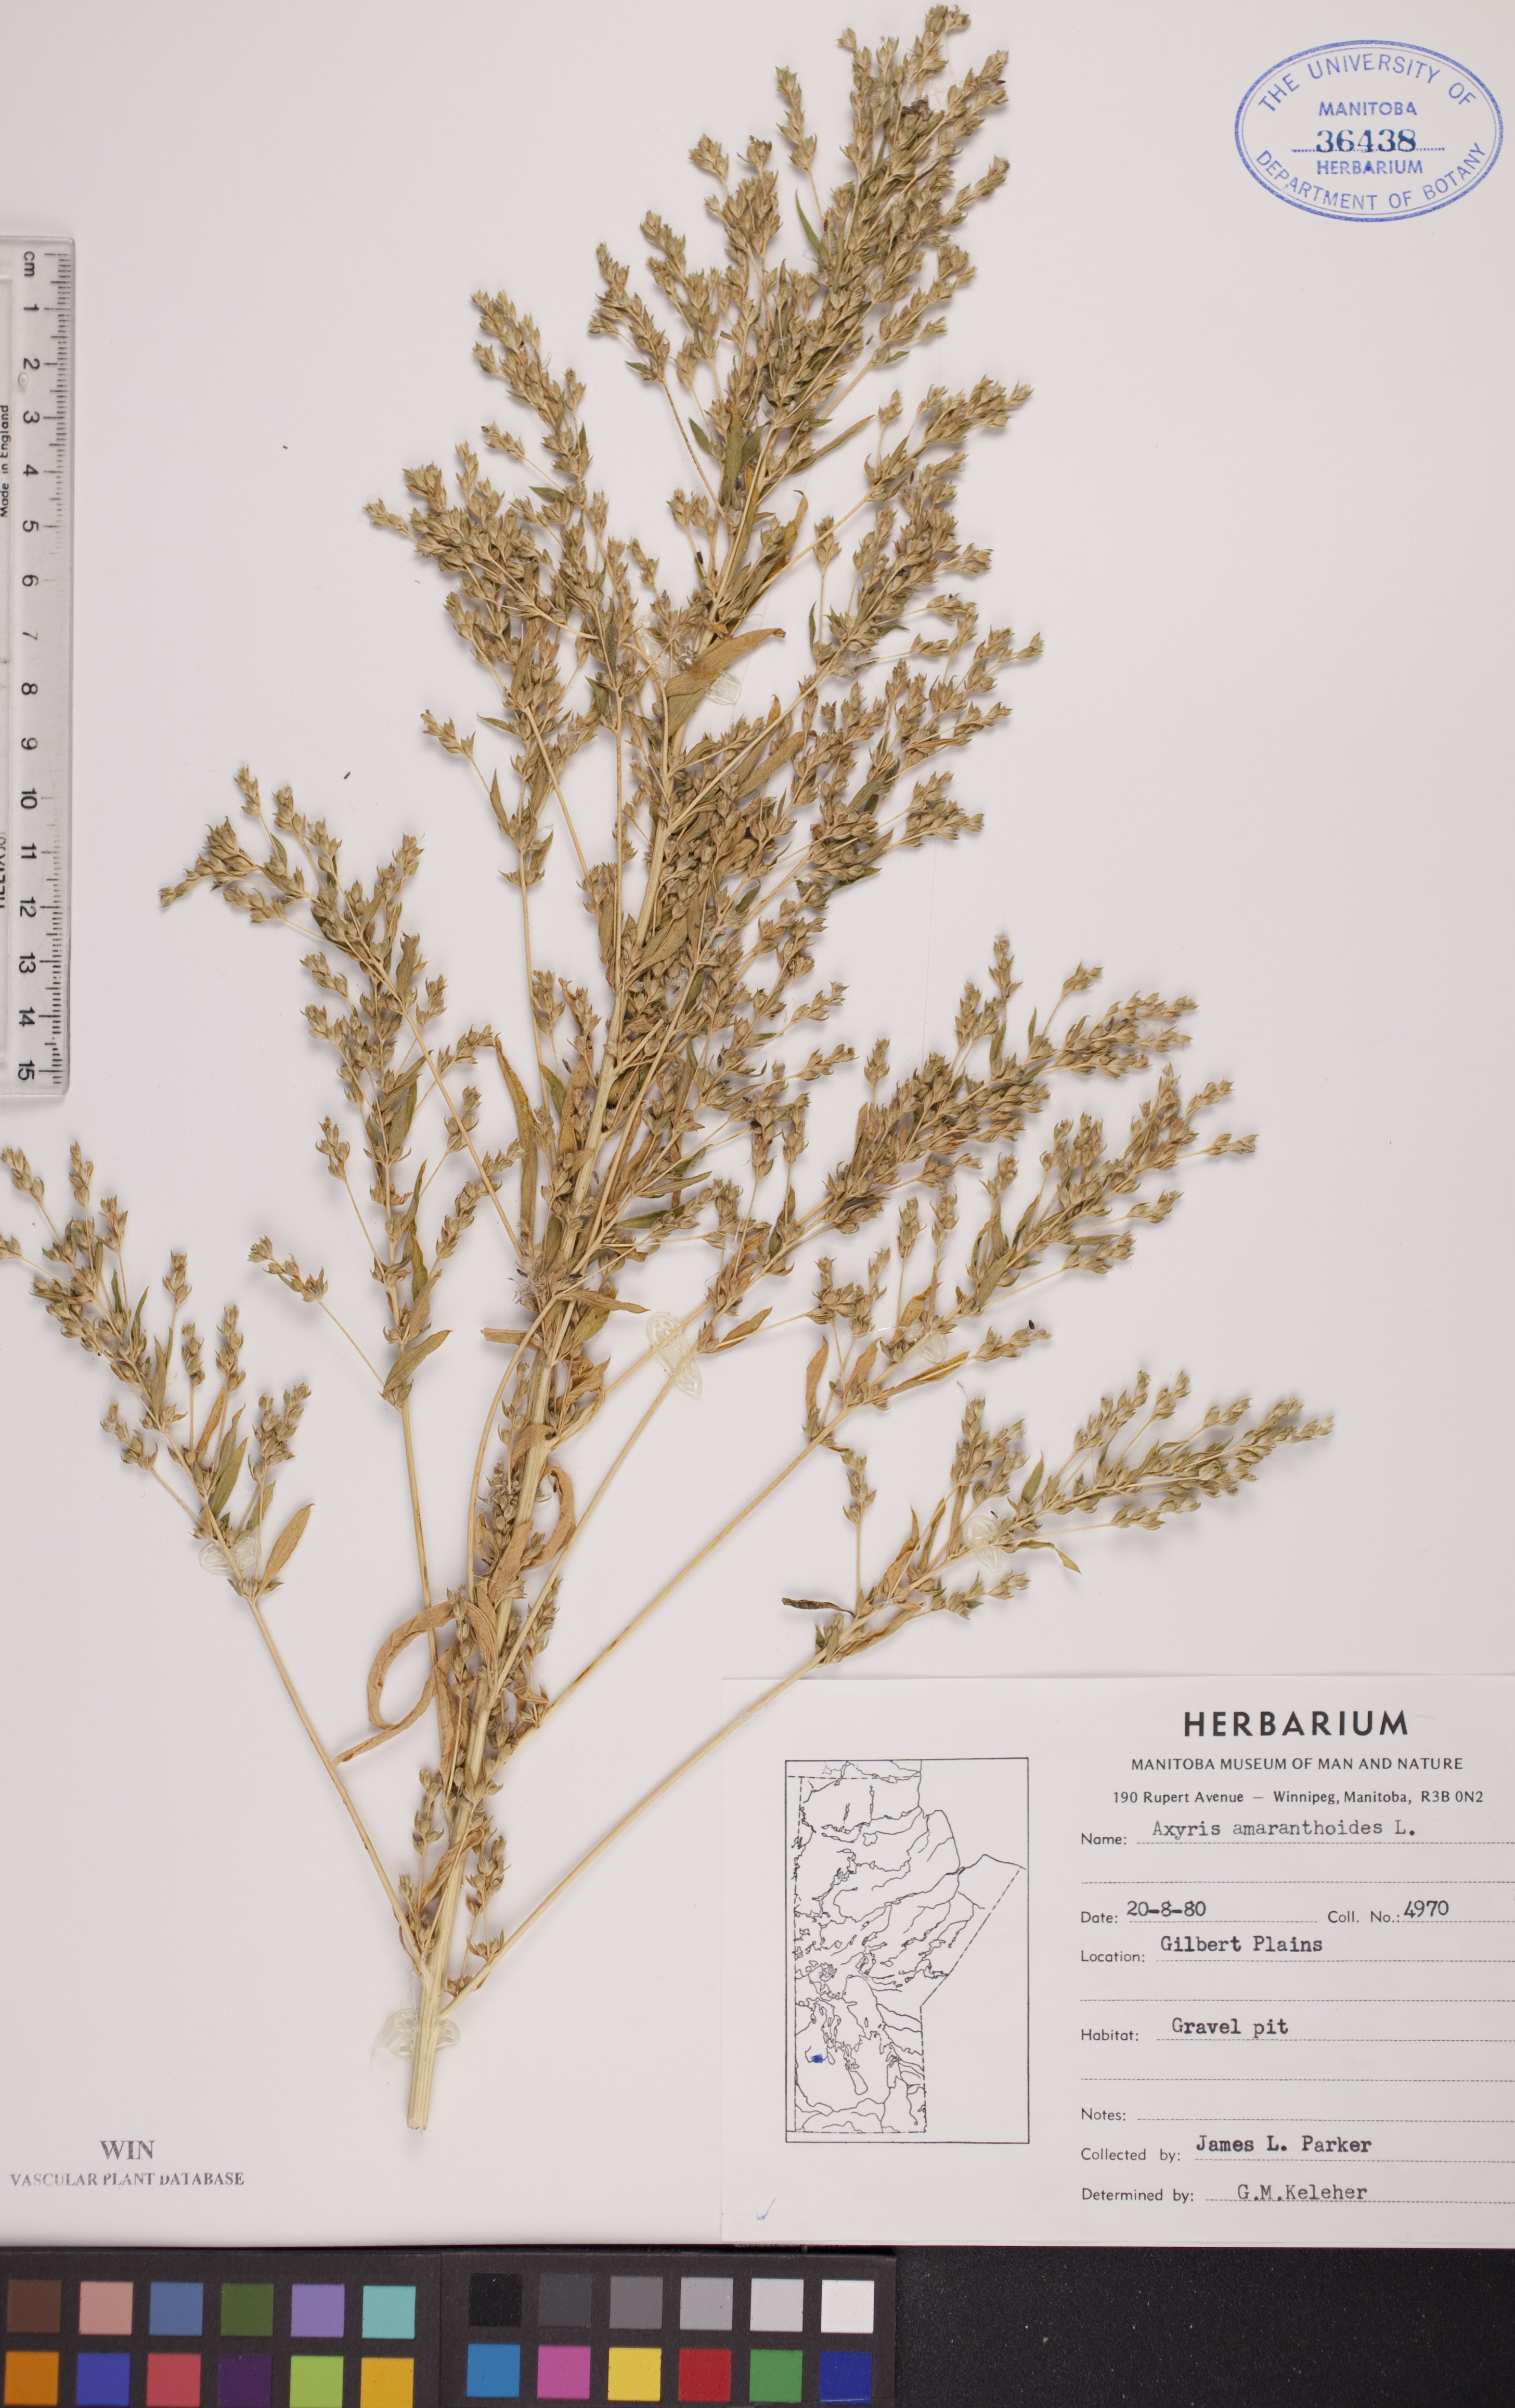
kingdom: Plantae
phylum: Tracheophyta
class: Magnoliopsida
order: Caryophyllales
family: Amaranthaceae
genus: Axyris
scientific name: Axyris amaranthoides
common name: Russian pigweed
